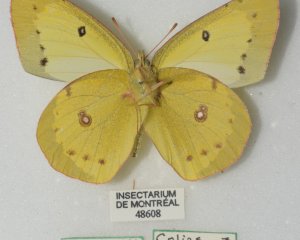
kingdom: Animalia
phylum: Arthropoda
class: Insecta
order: Lepidoptera
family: Pieridae
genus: Colias
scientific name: Colias philodice
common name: Clouded Sulphur
